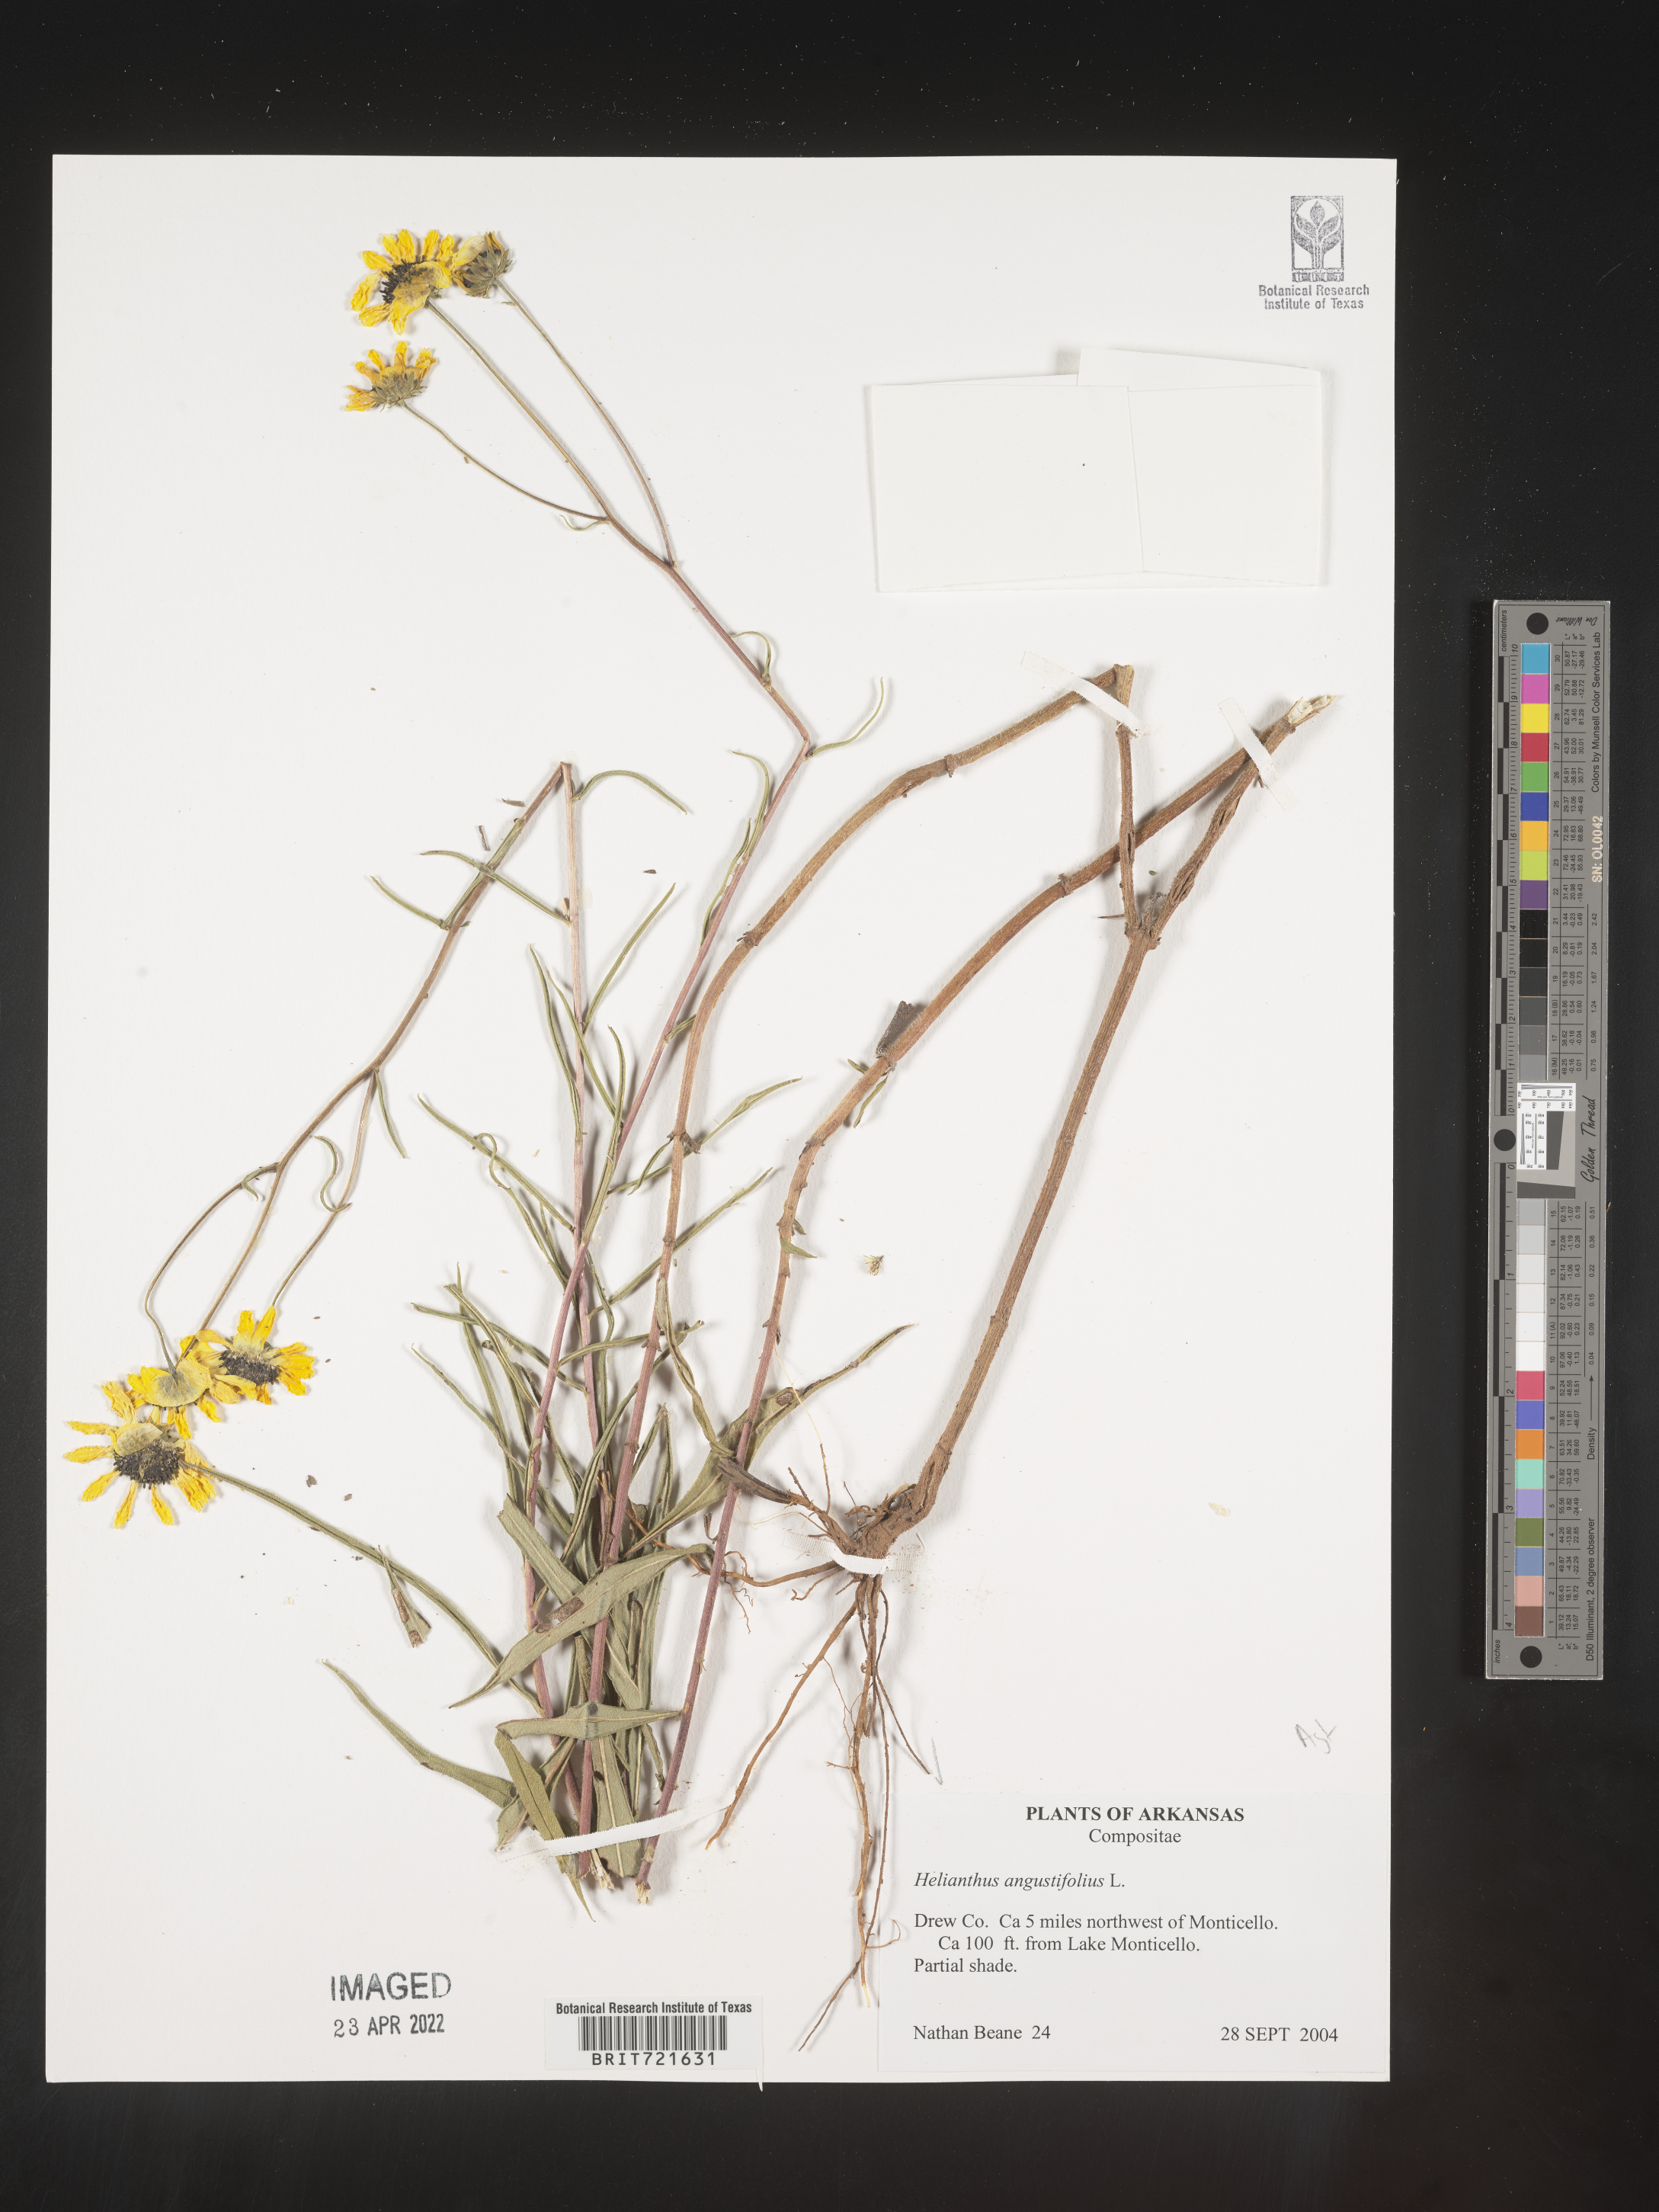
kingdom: Plantae
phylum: Tracheophyta
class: Magnoliopsida
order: Asterales
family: Asteraceae
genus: Helianthus
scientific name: Helianthus angustifolius
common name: Swamp sunflower
